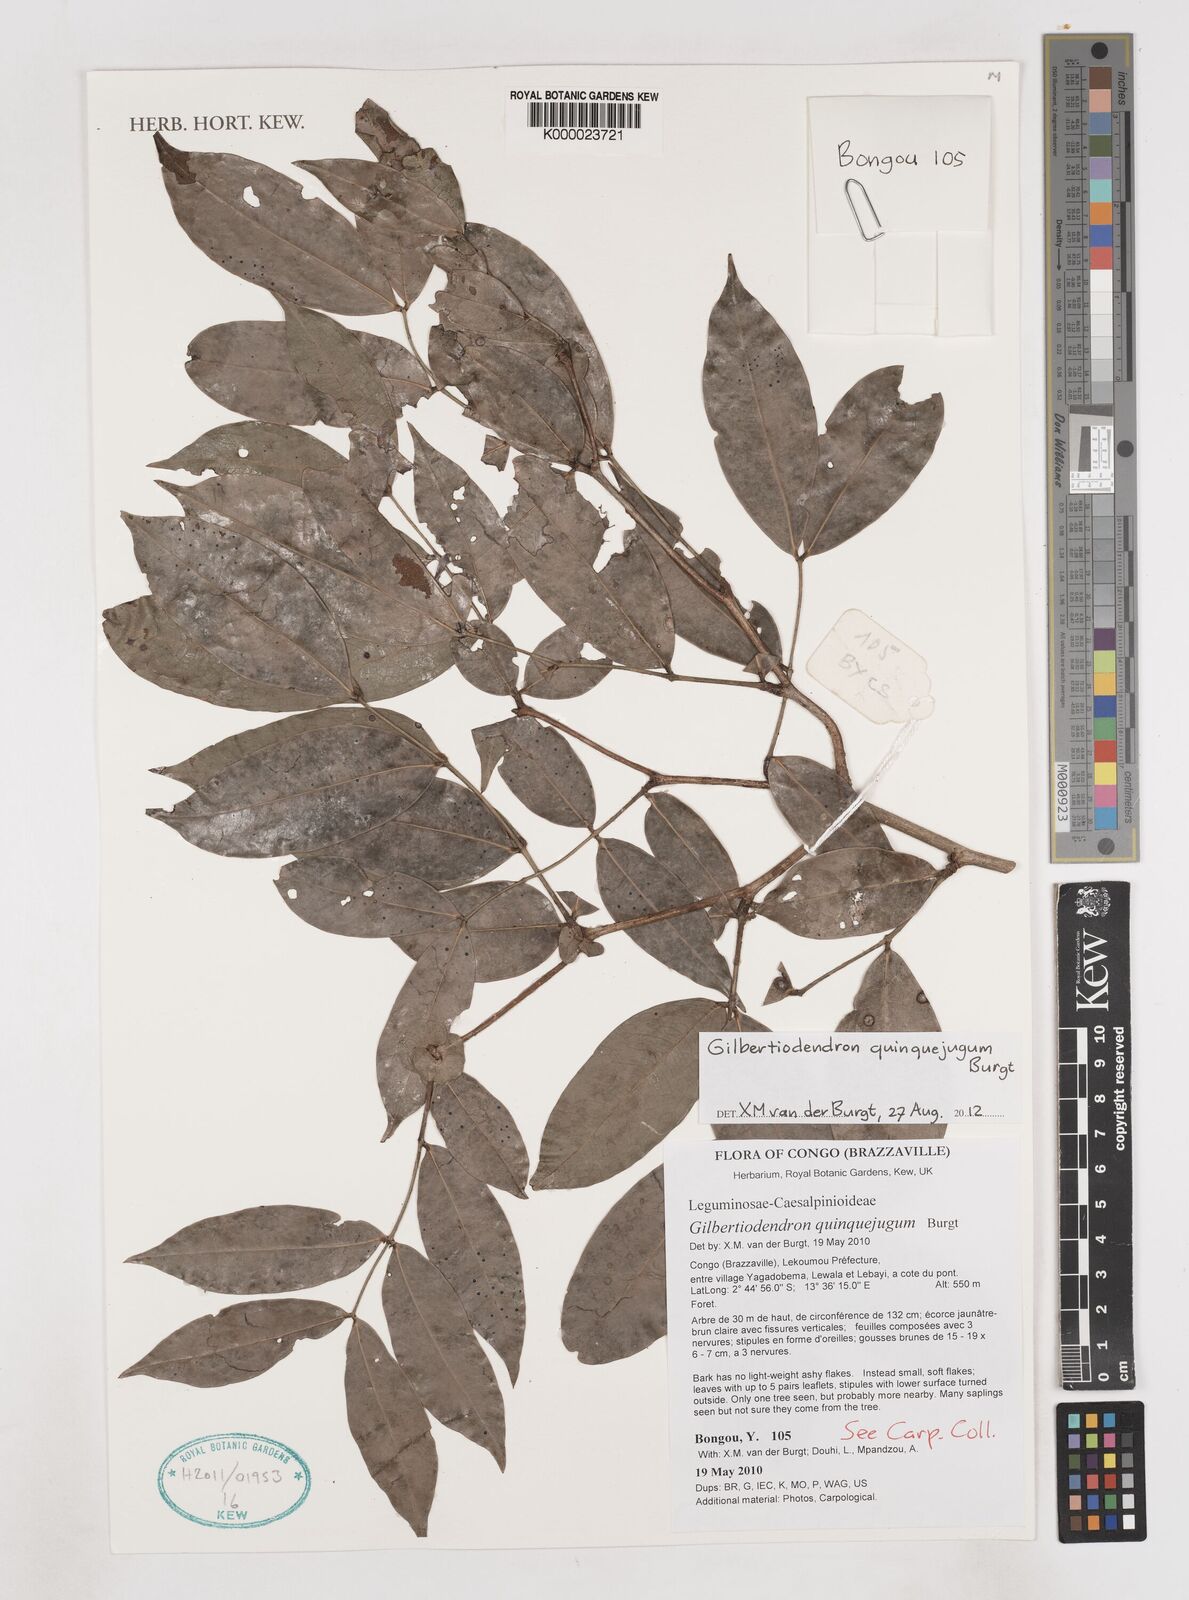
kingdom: Plantae
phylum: Tracheophyta
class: Magnoliopsida
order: Fabales
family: Fabaceae
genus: Gilbertiodendron
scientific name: Gilbertiodendron
